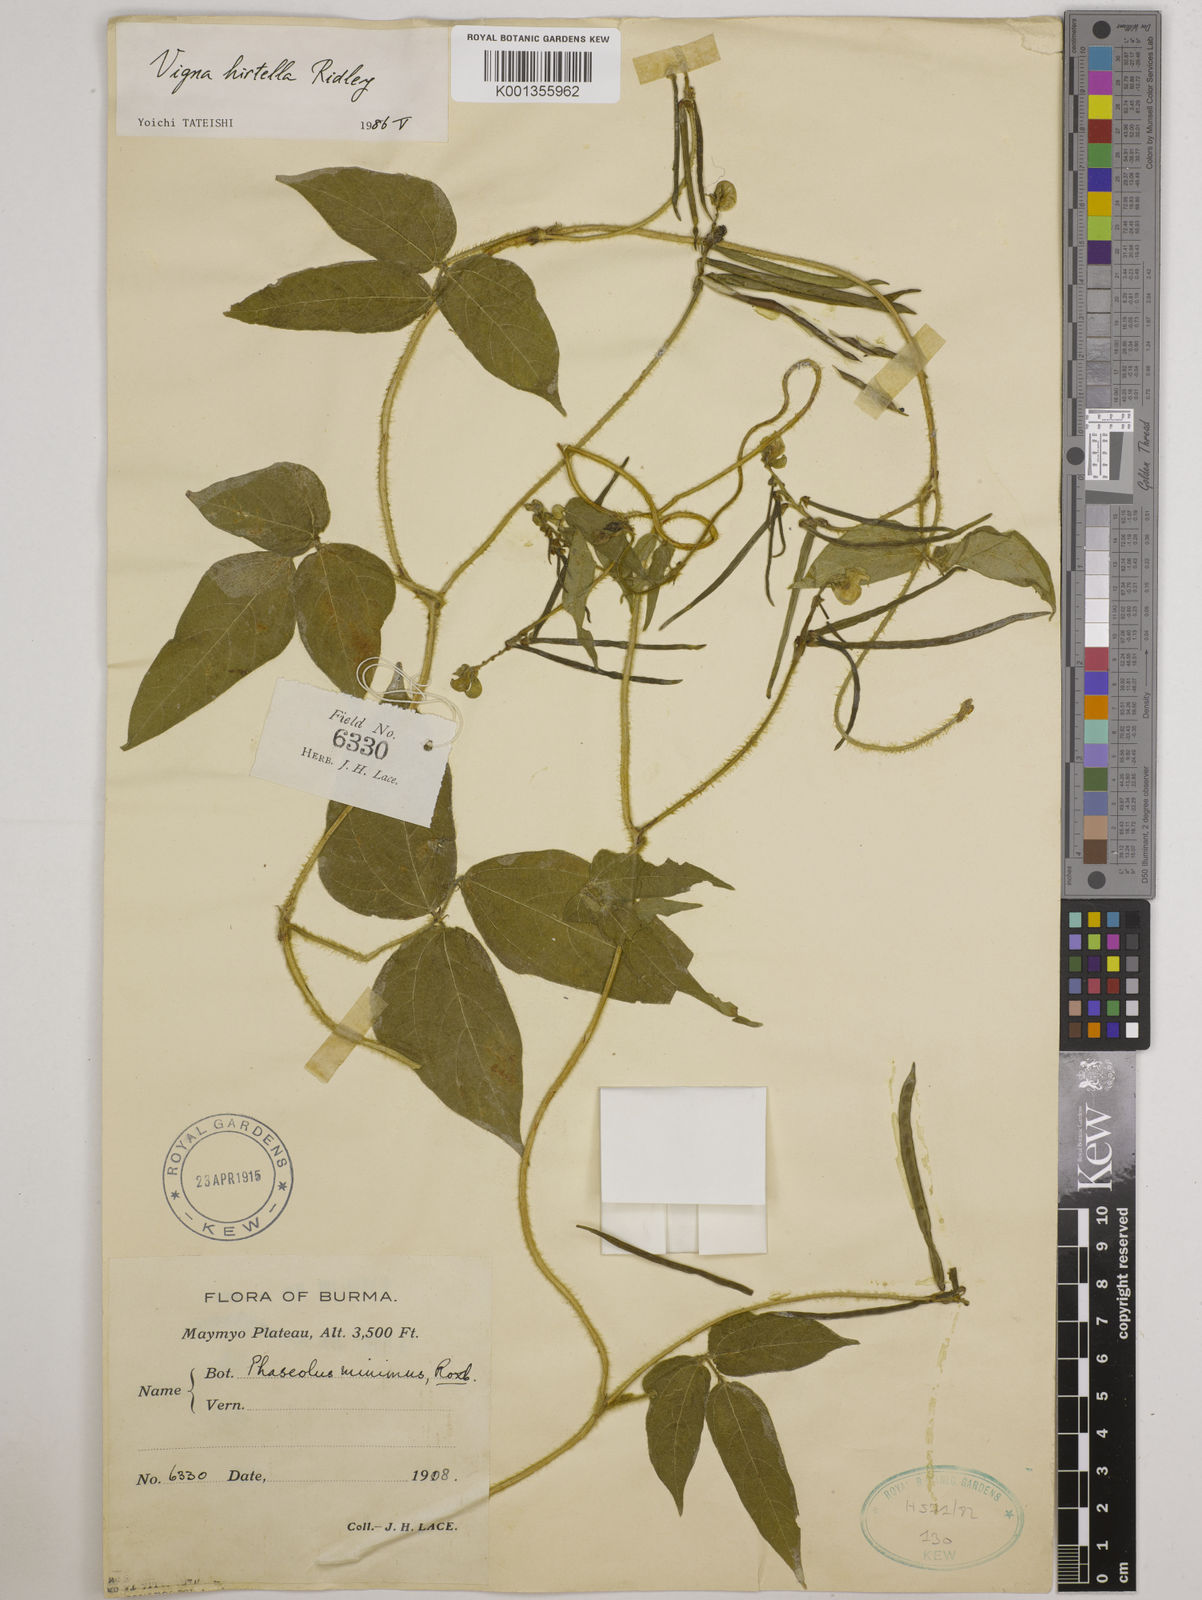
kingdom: Plantae
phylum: Tracheophyta
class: Magnoliopsida
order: Fabales
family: Fabaceae
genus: Vigna
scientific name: Vigna hirtella
